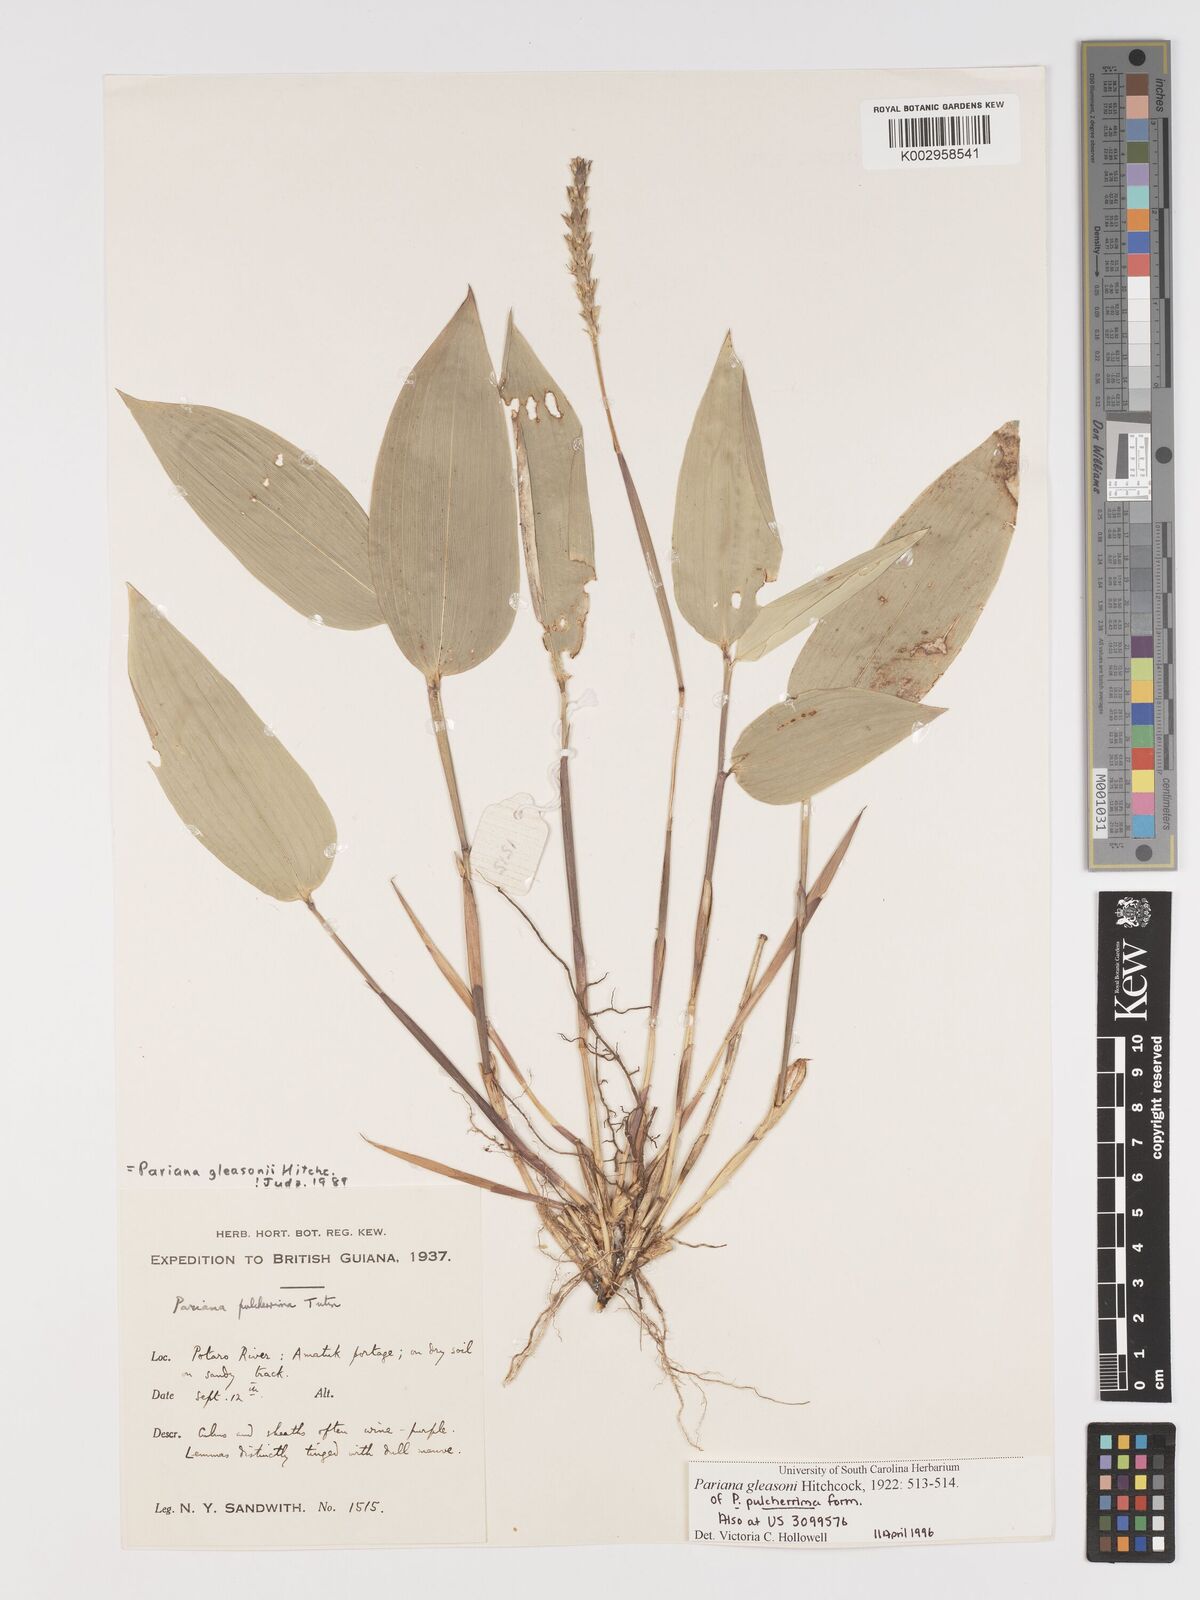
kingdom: Plantae
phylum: Tracheophyta
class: Liliopsida
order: Poales
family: Poaceae
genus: Pariana
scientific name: Pariana radiciflora
